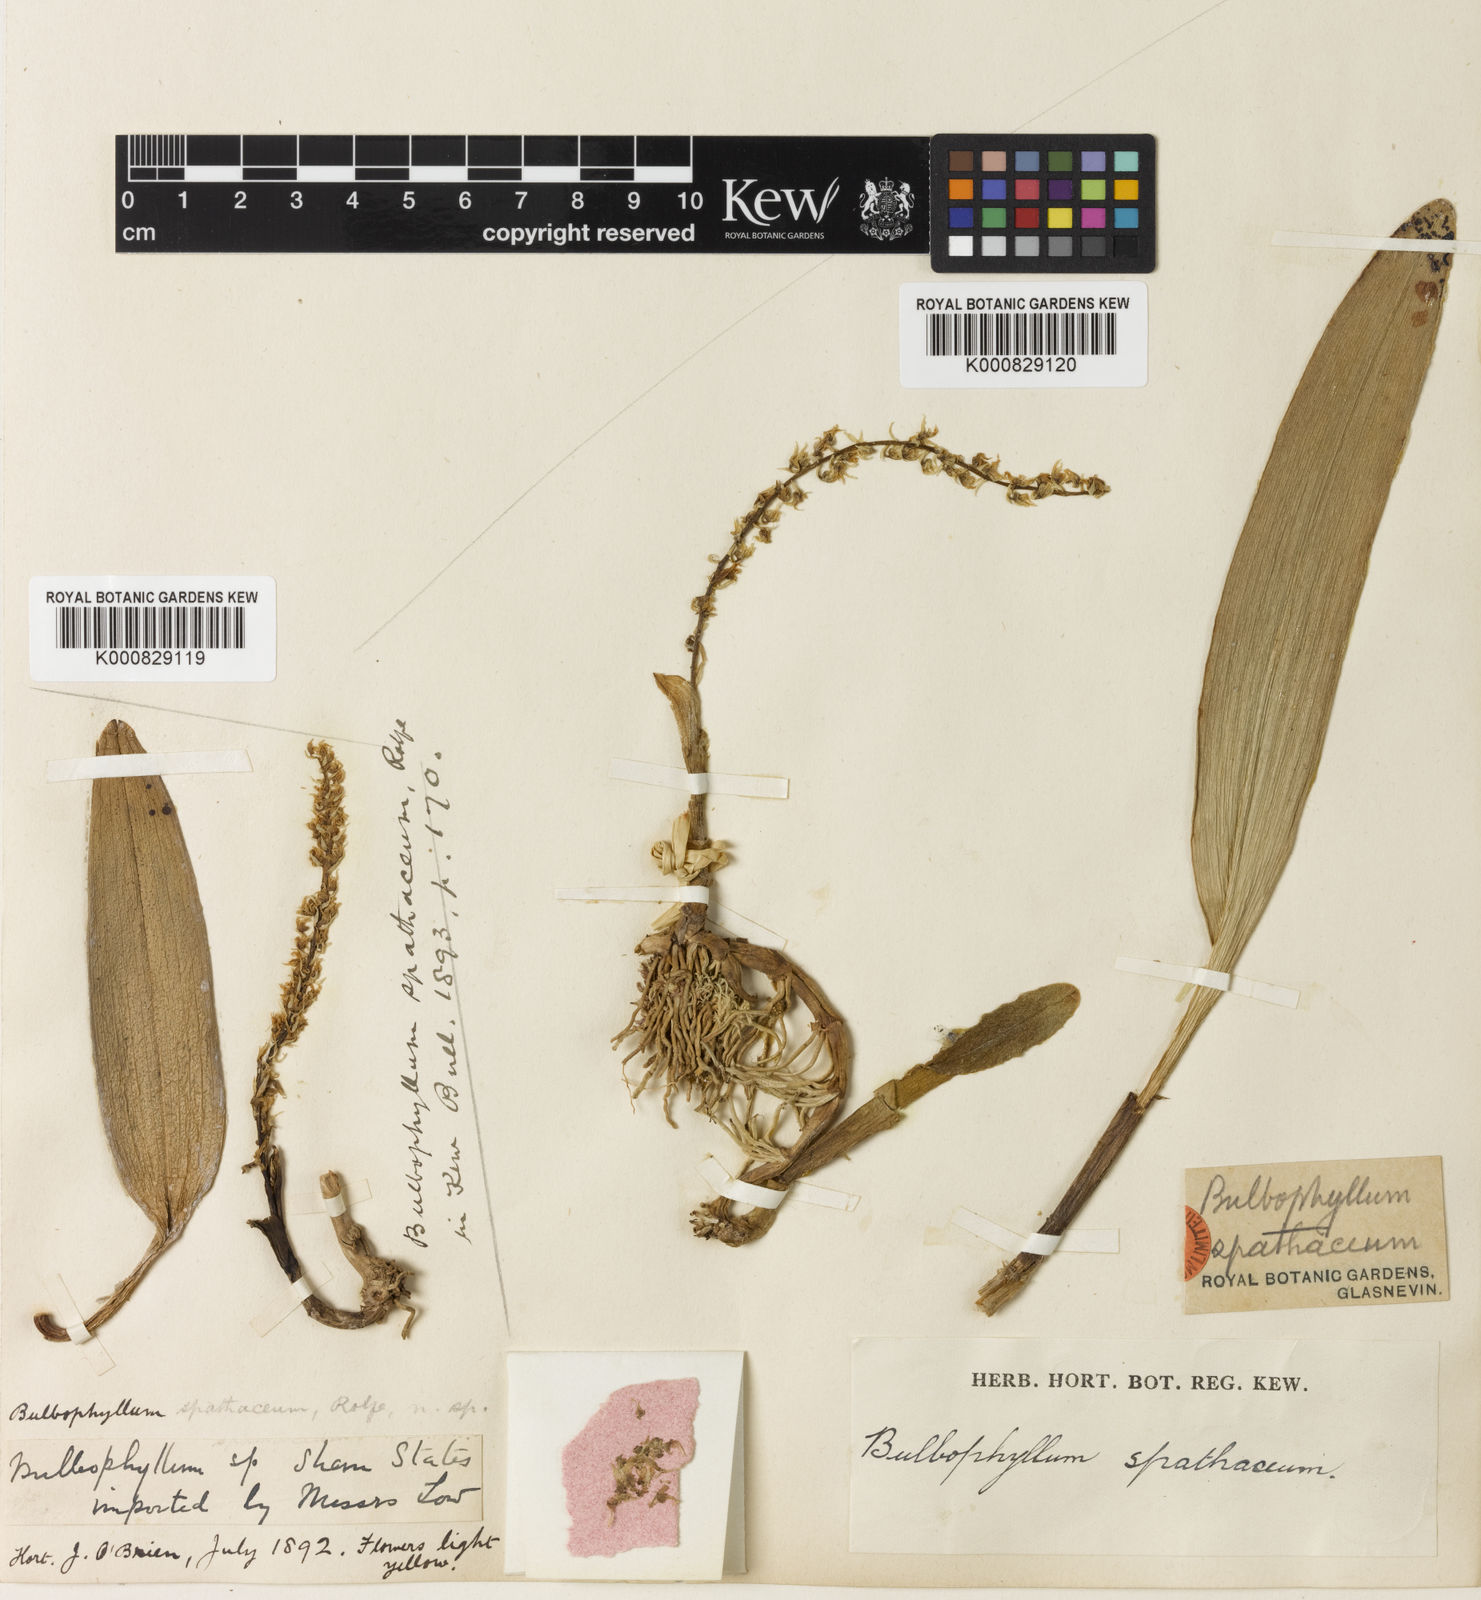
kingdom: Plantae
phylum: Tracheophyta
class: Liliopsida
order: Asparagales
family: Orchidaceae
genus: Bulbophyllum
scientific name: Bulbophyllum apodum
